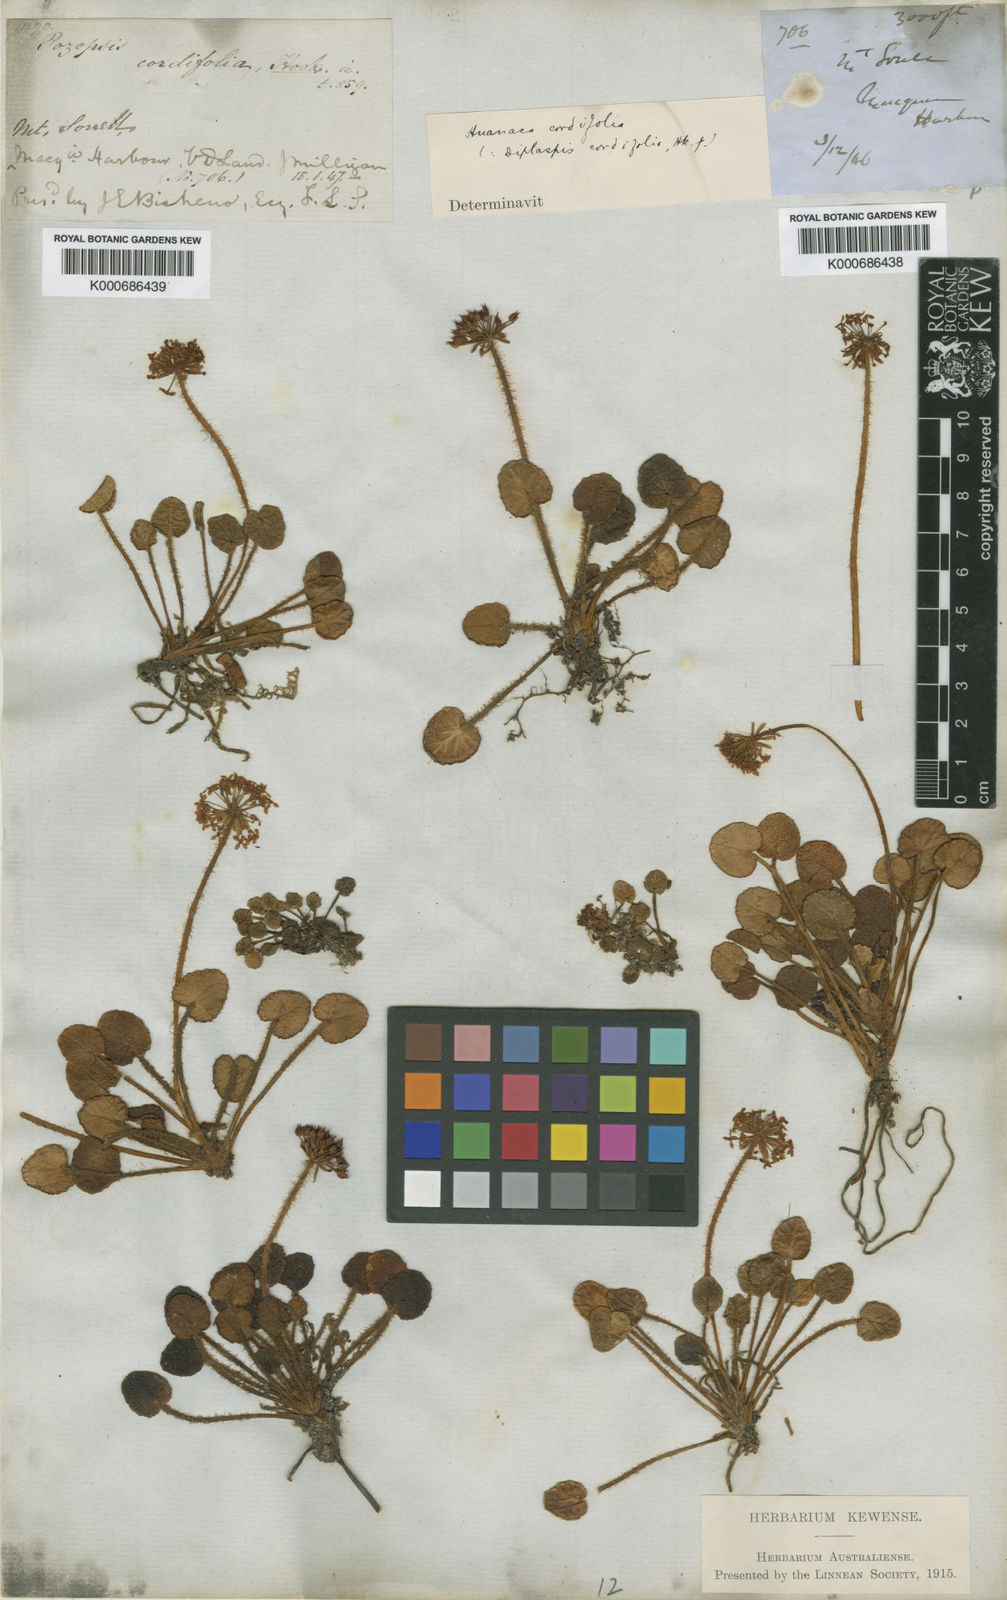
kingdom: Plantae
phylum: Tracheophyta
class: Magnoliopsida
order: Apiales
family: Apiaceae
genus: Diplaspis
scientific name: Diplaspis cordifolia
